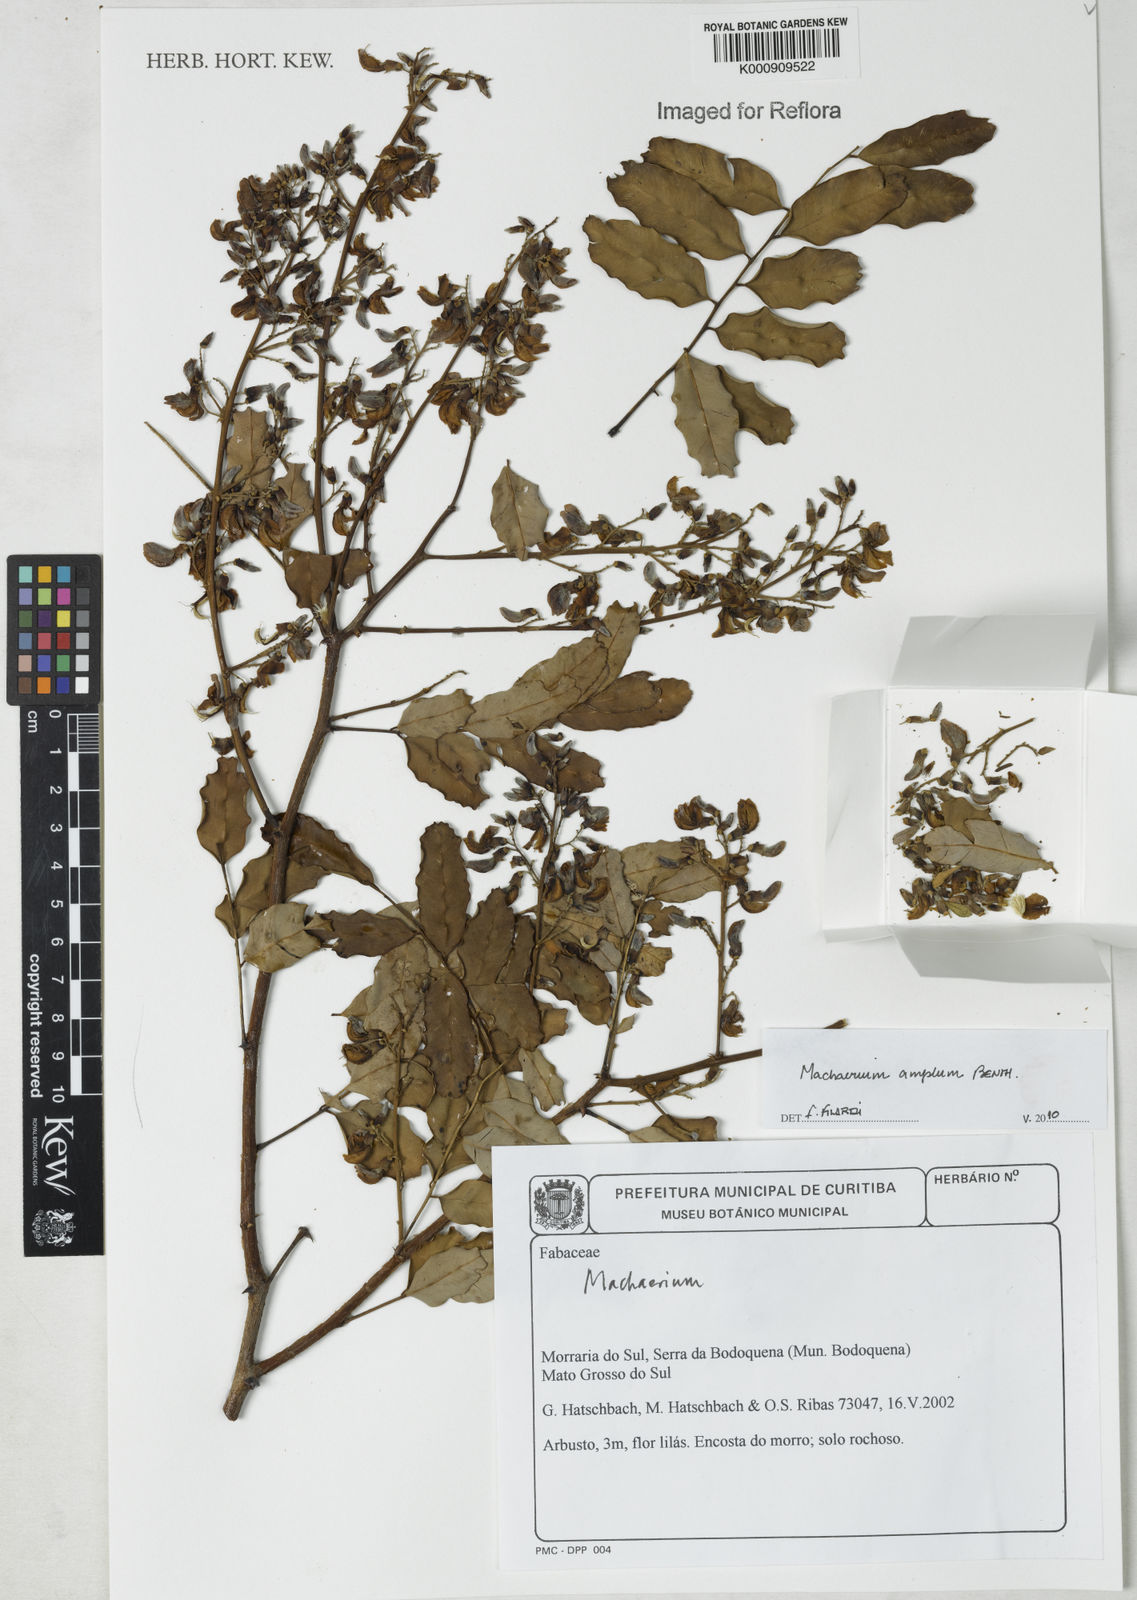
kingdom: Plantae
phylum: Tracheophyta
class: Magnoliopsida
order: Fabales
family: Fabaceae
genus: Machaerium
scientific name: Machaerium amplum
